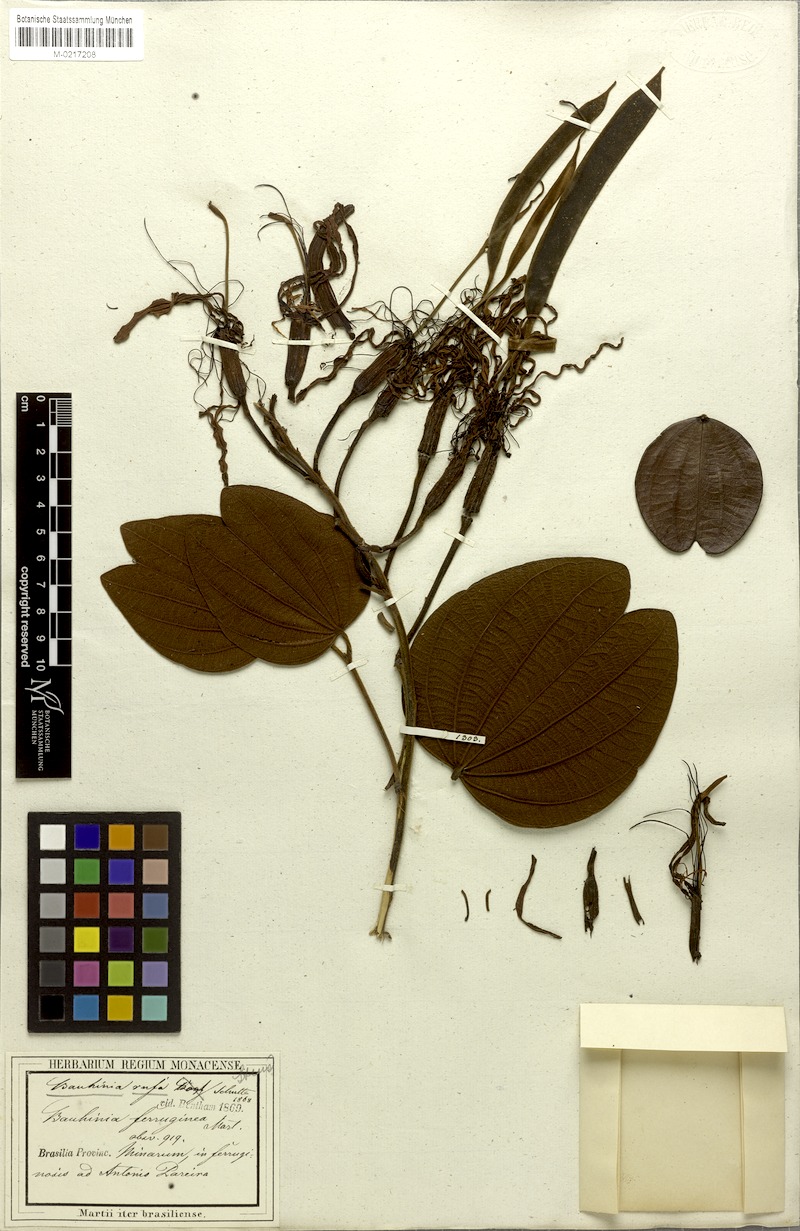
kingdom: Plantae
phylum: Tracheophyta
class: Magnoliopsida
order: Fabales
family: Fabaceae
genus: Bauhinia
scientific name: Bauhinia rufa
